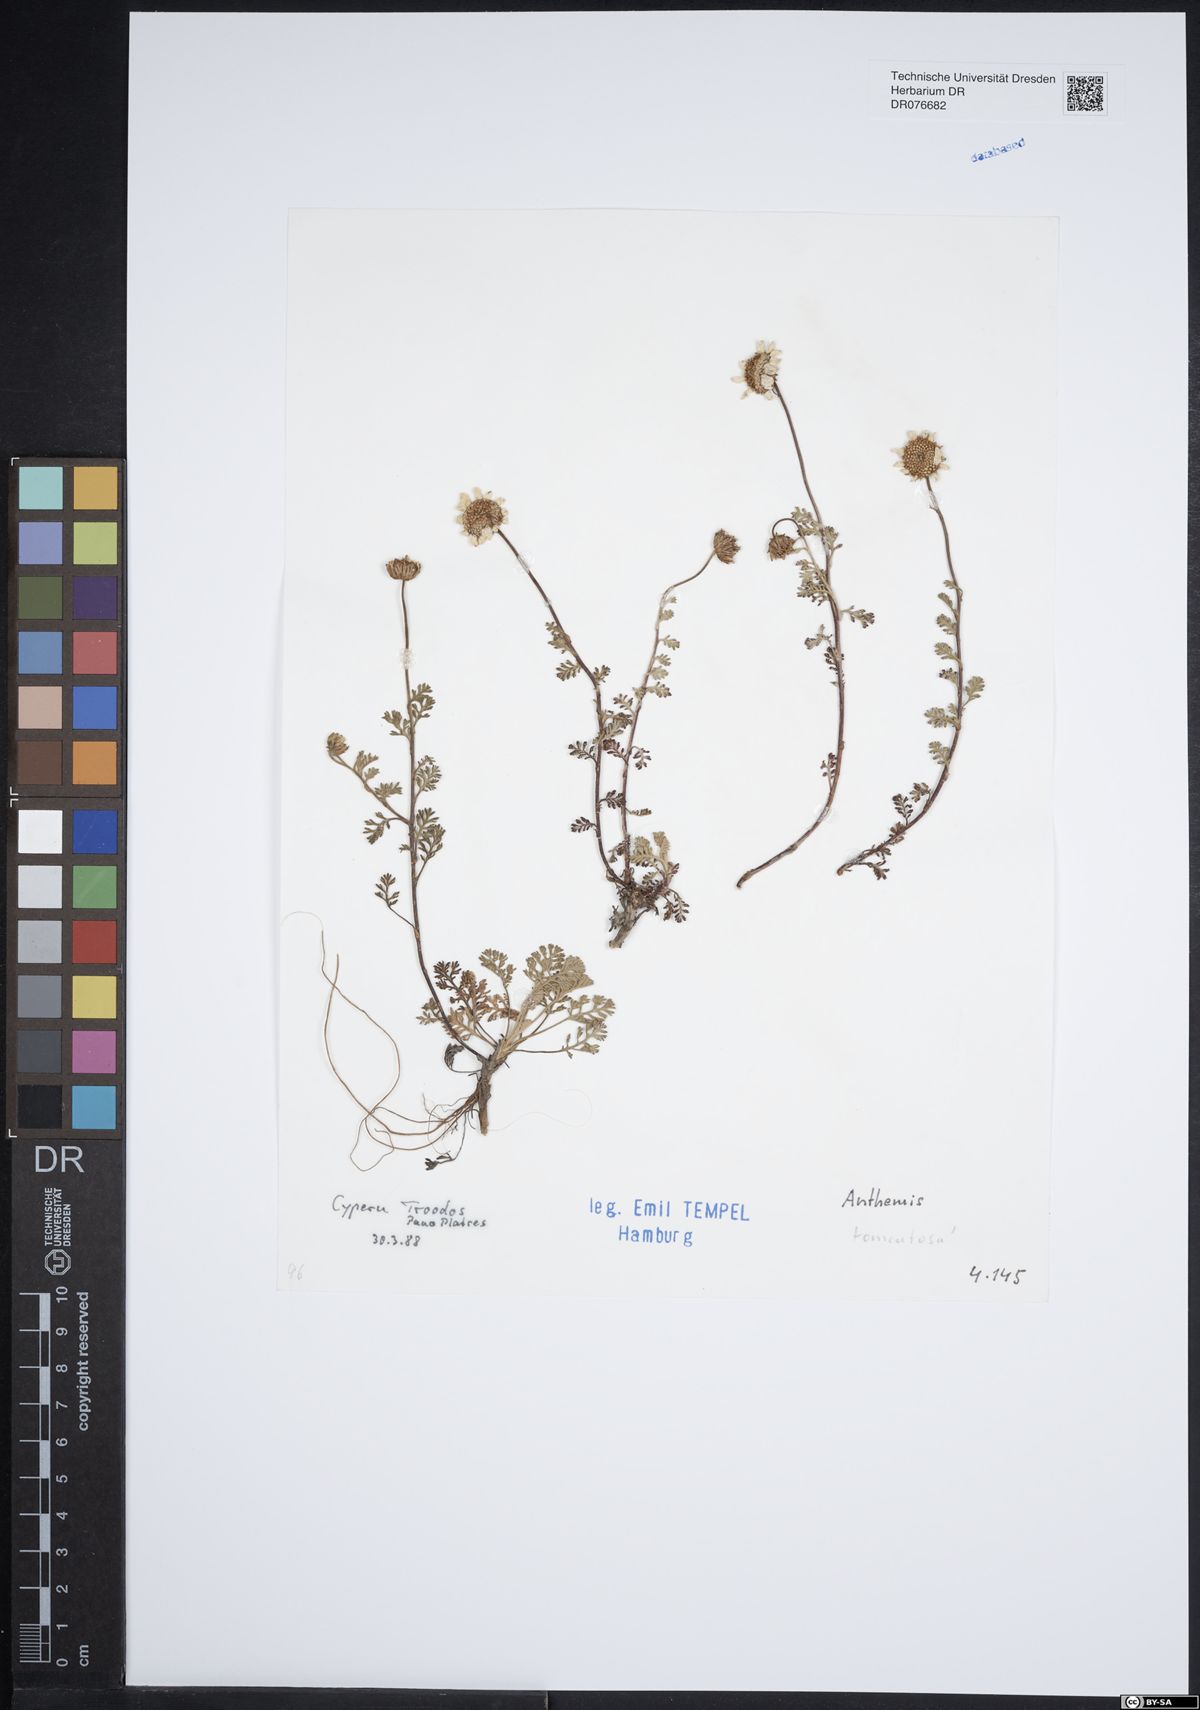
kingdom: Plantae
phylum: Tracheophyta
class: Magnoliopsida
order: Asterales
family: Asteraceae
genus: Anthemis
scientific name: Anthemis tomentosa
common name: Woolly chamomile
